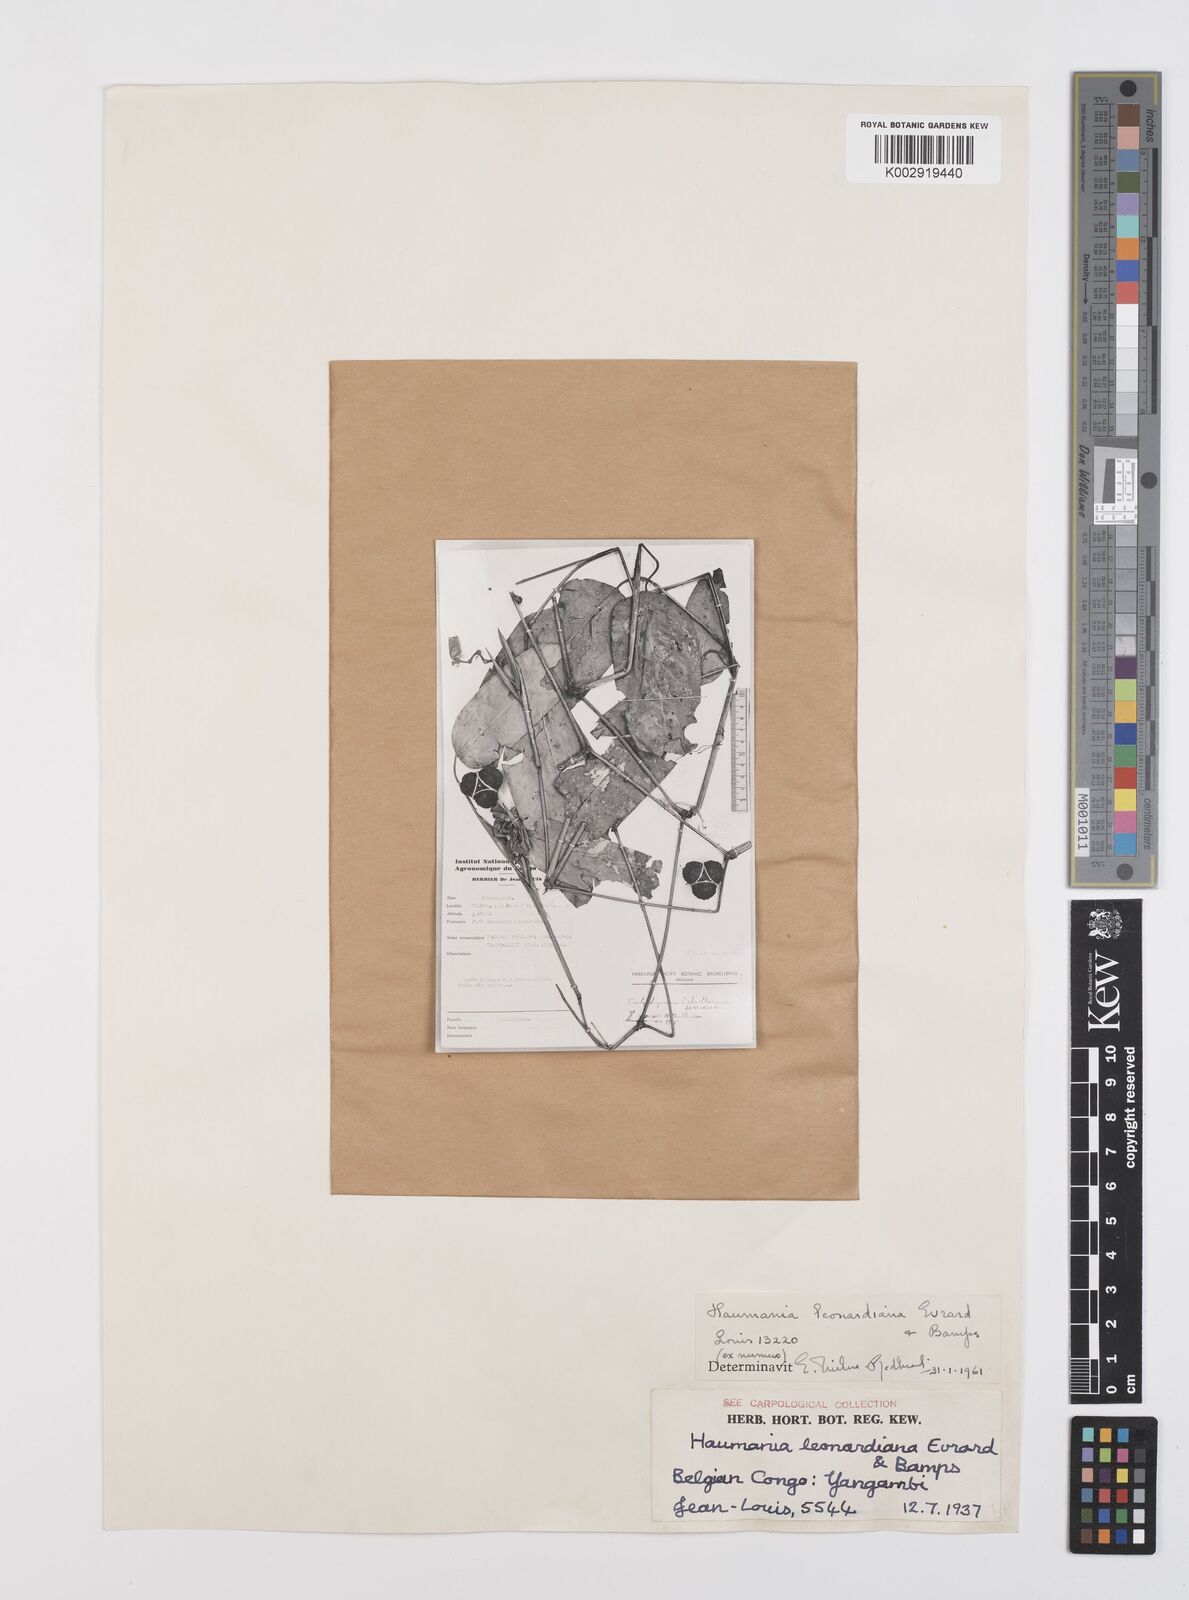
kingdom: Plantae
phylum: Tracheophyta
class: Liliopsida
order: Zingiberales
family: Marantaceae
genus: Haumania
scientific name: Haumania leonardiana
